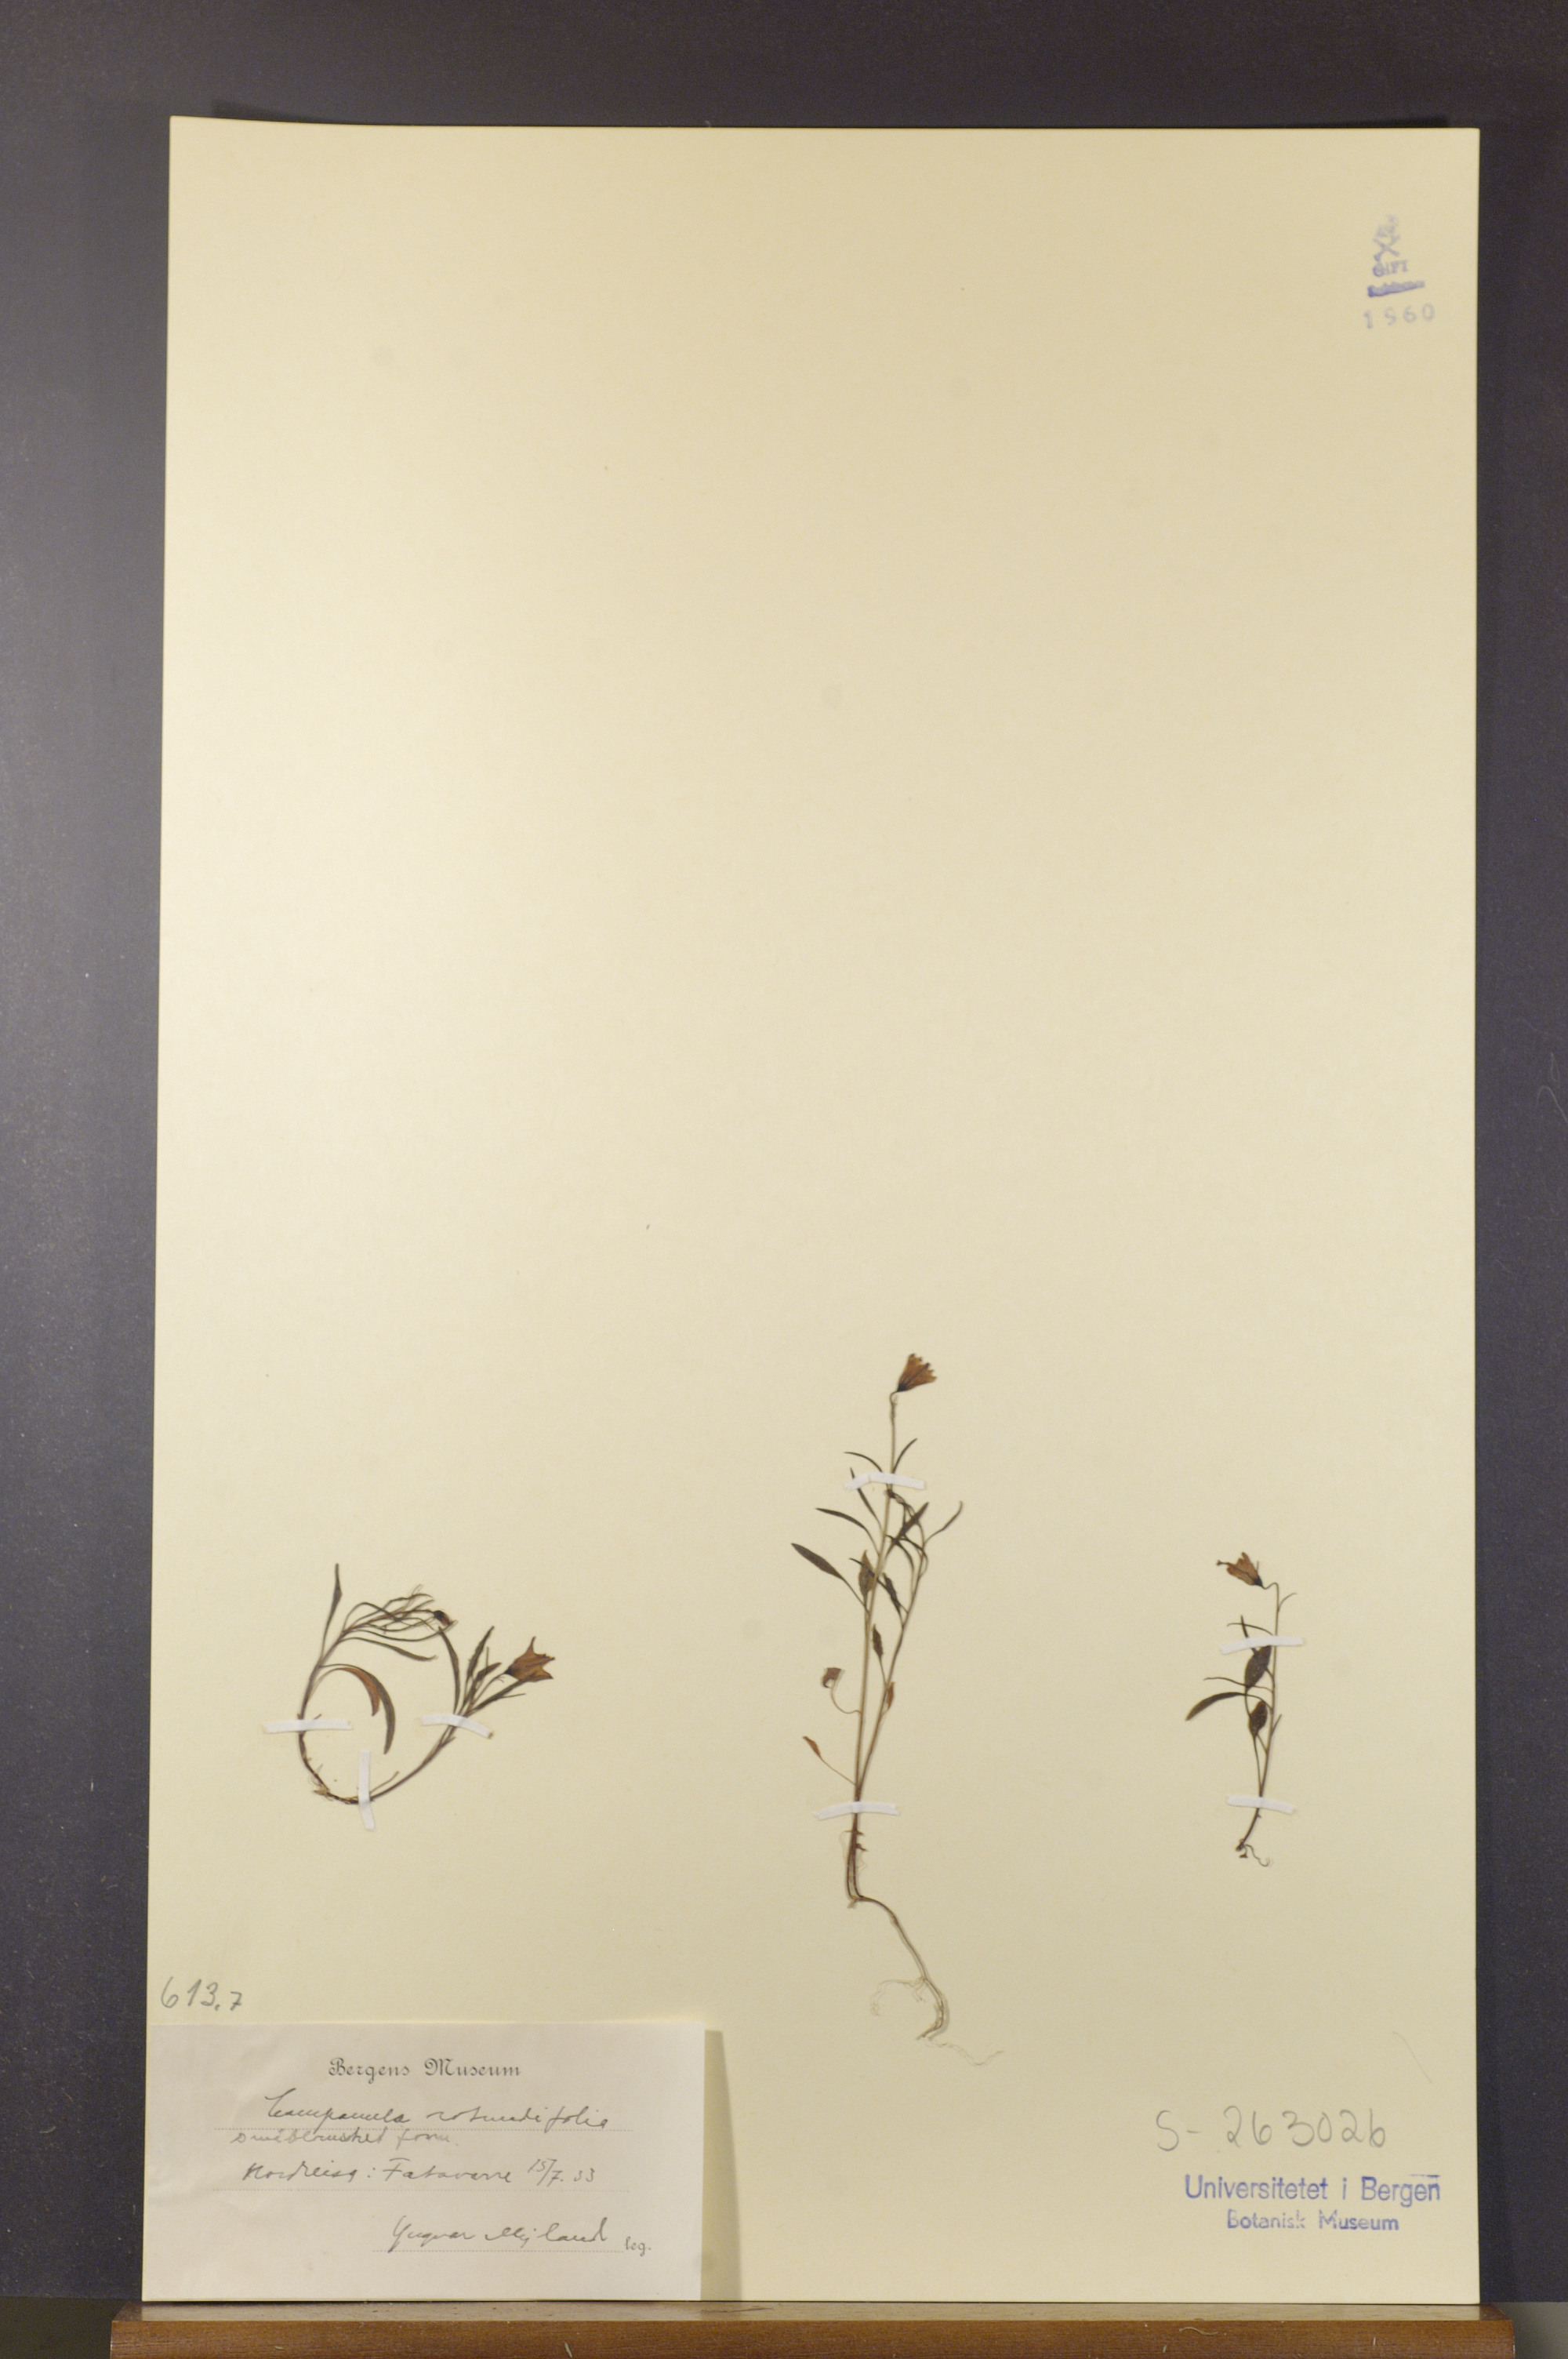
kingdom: Plantae
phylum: Tracheophyta
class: Magnoliopsida
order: Asterales
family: Campanulaceae
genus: Campanula
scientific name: Campanula rotundifolia
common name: Harebell
